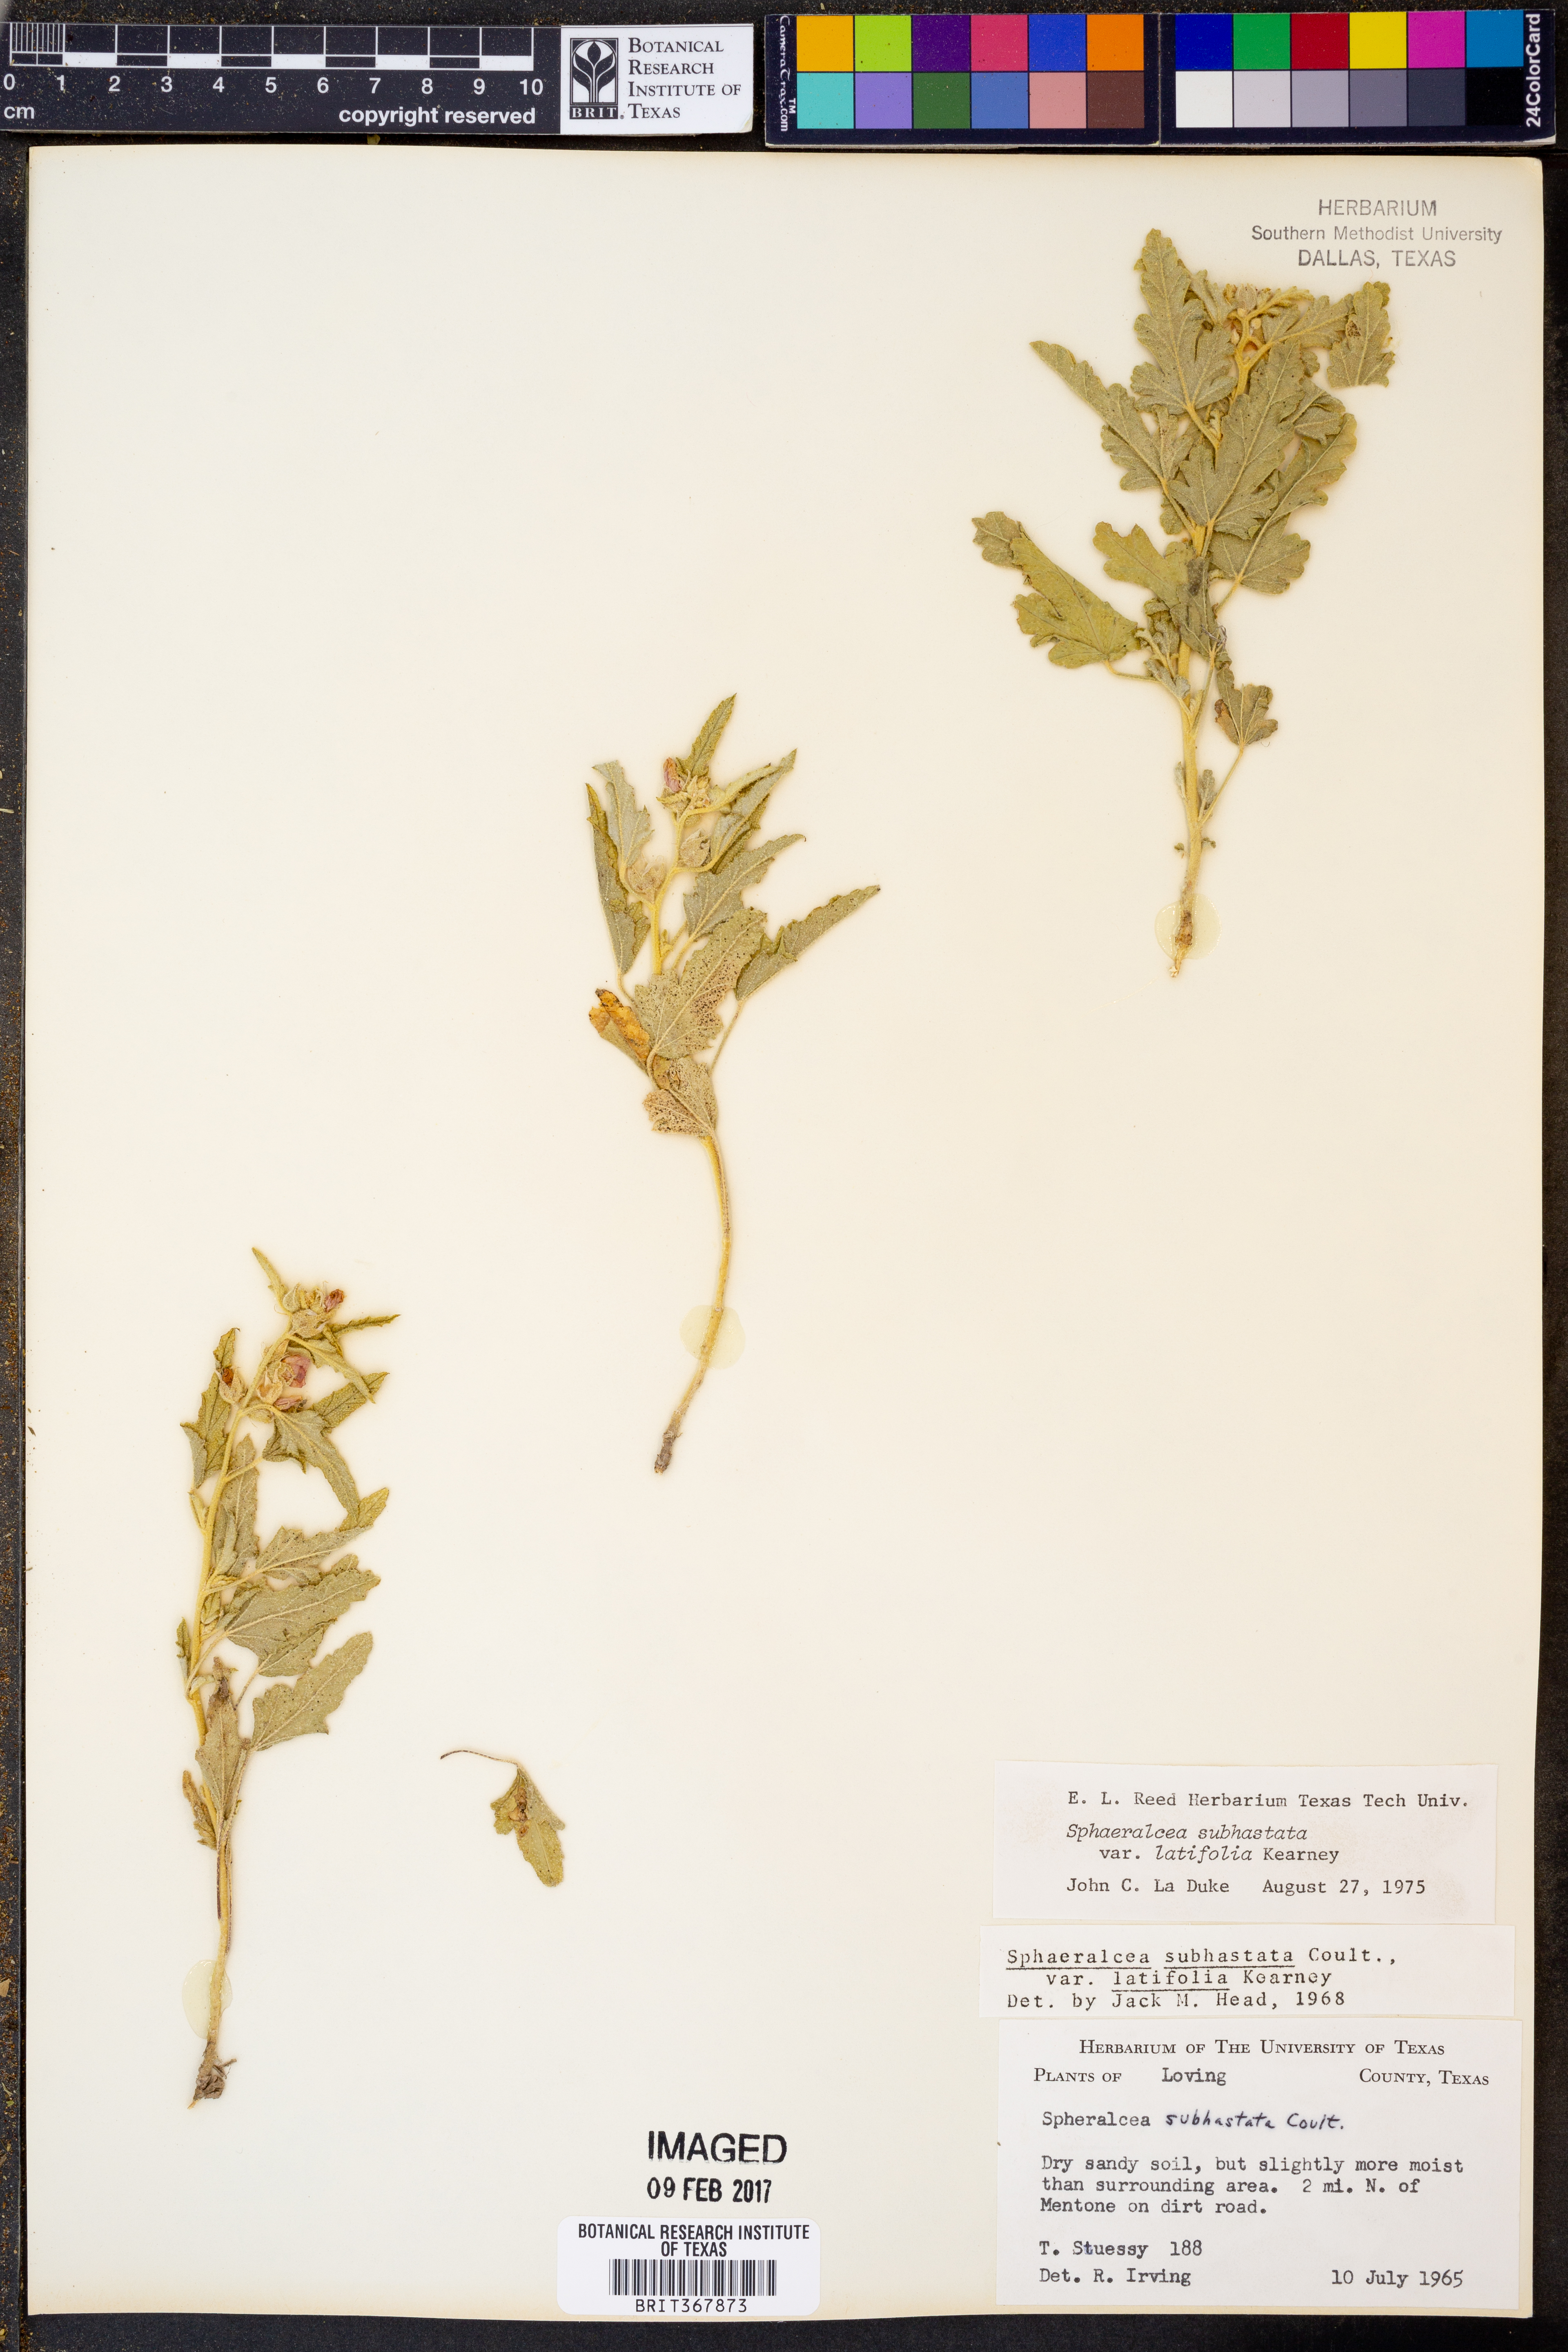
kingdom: Plantae
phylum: Tracheophyta
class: Magnoliopsida
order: Malvales
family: Malvaceae
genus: Sphaeralcea
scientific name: Sphaeralcea hastulata
